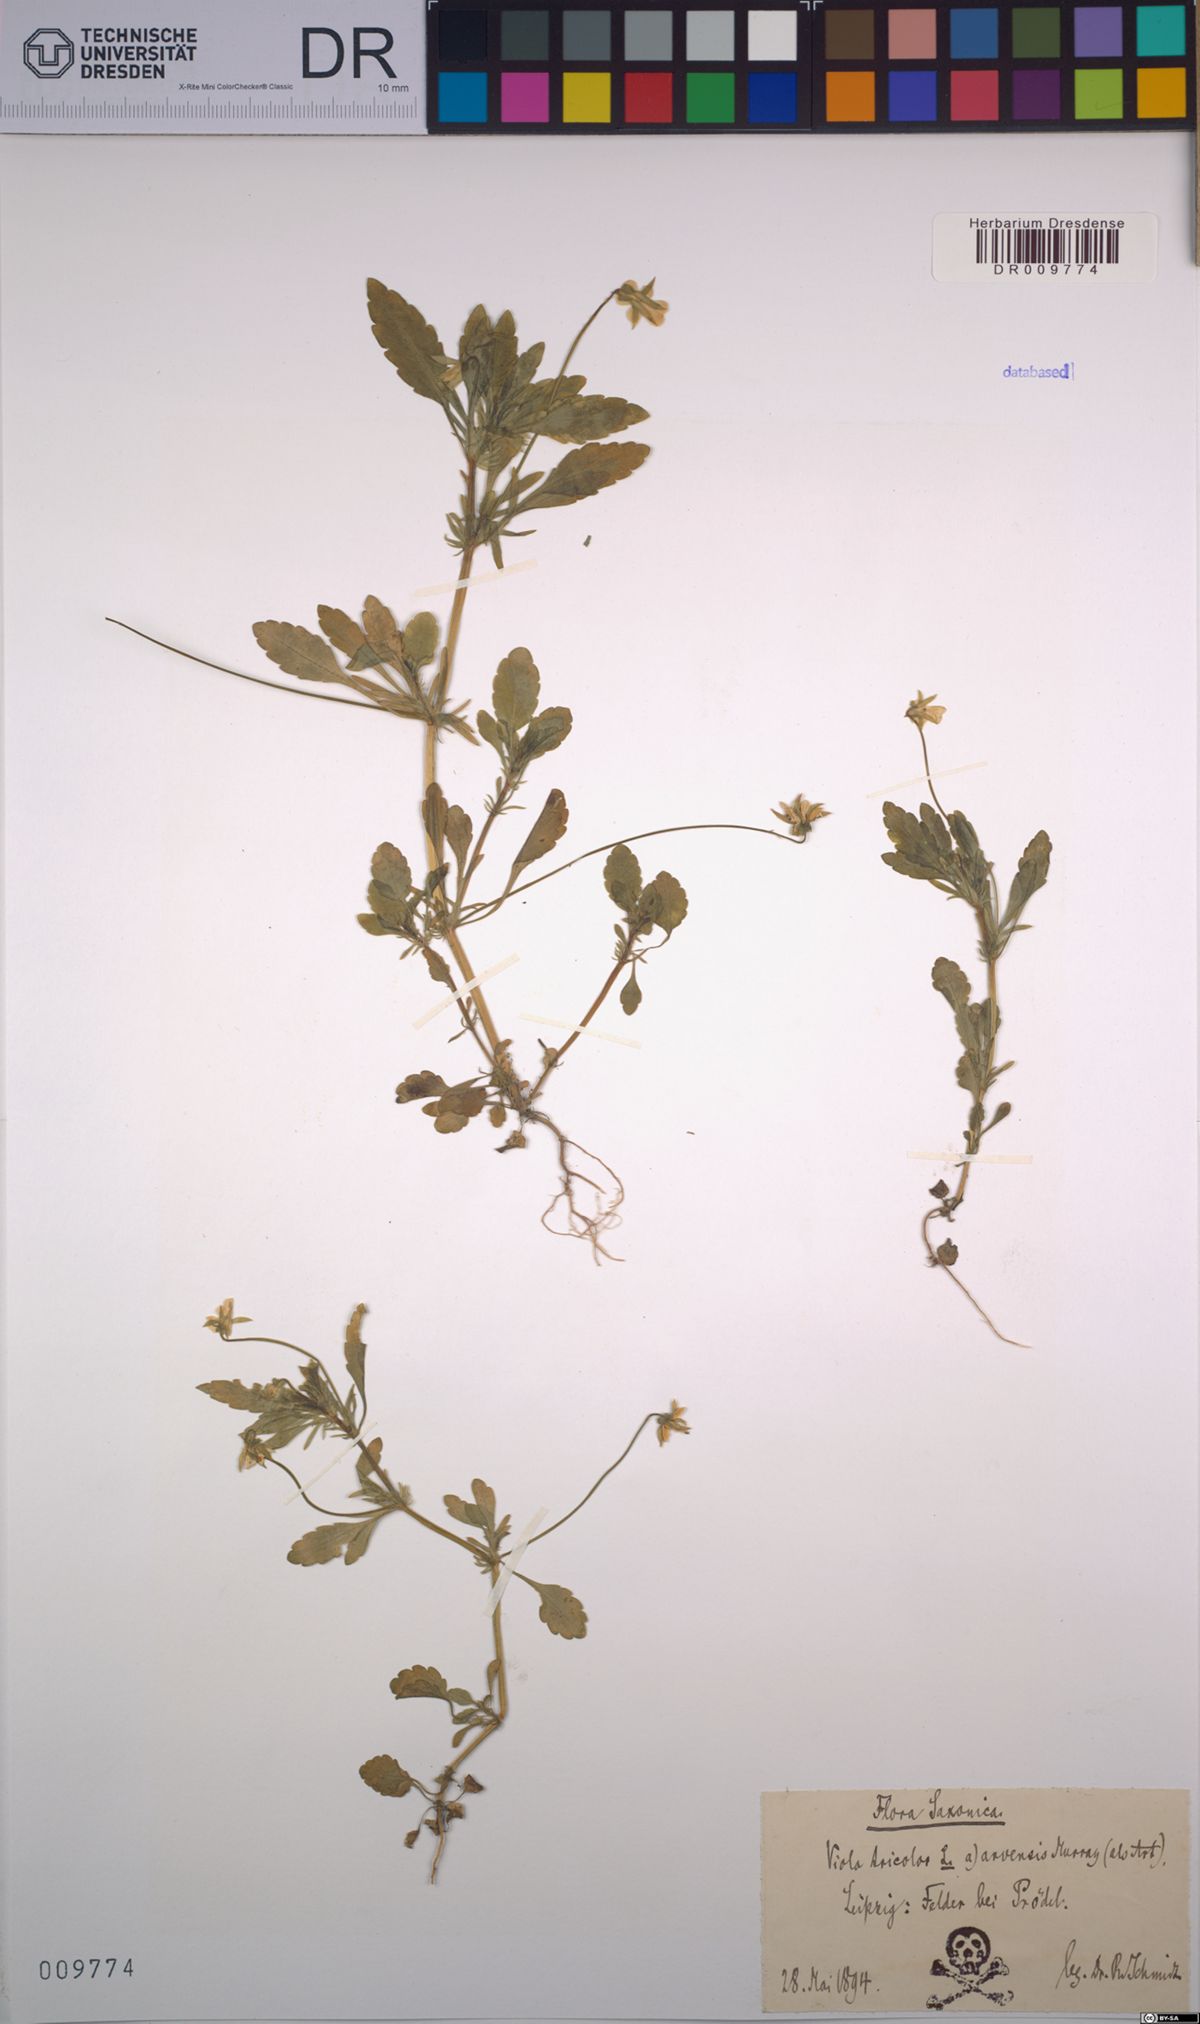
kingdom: Plantae
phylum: Tracheophyta
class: Magnoliopsida
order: Malpighiales
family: Violaceae
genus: Viola
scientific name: Viola arvensis
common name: Field pansy
